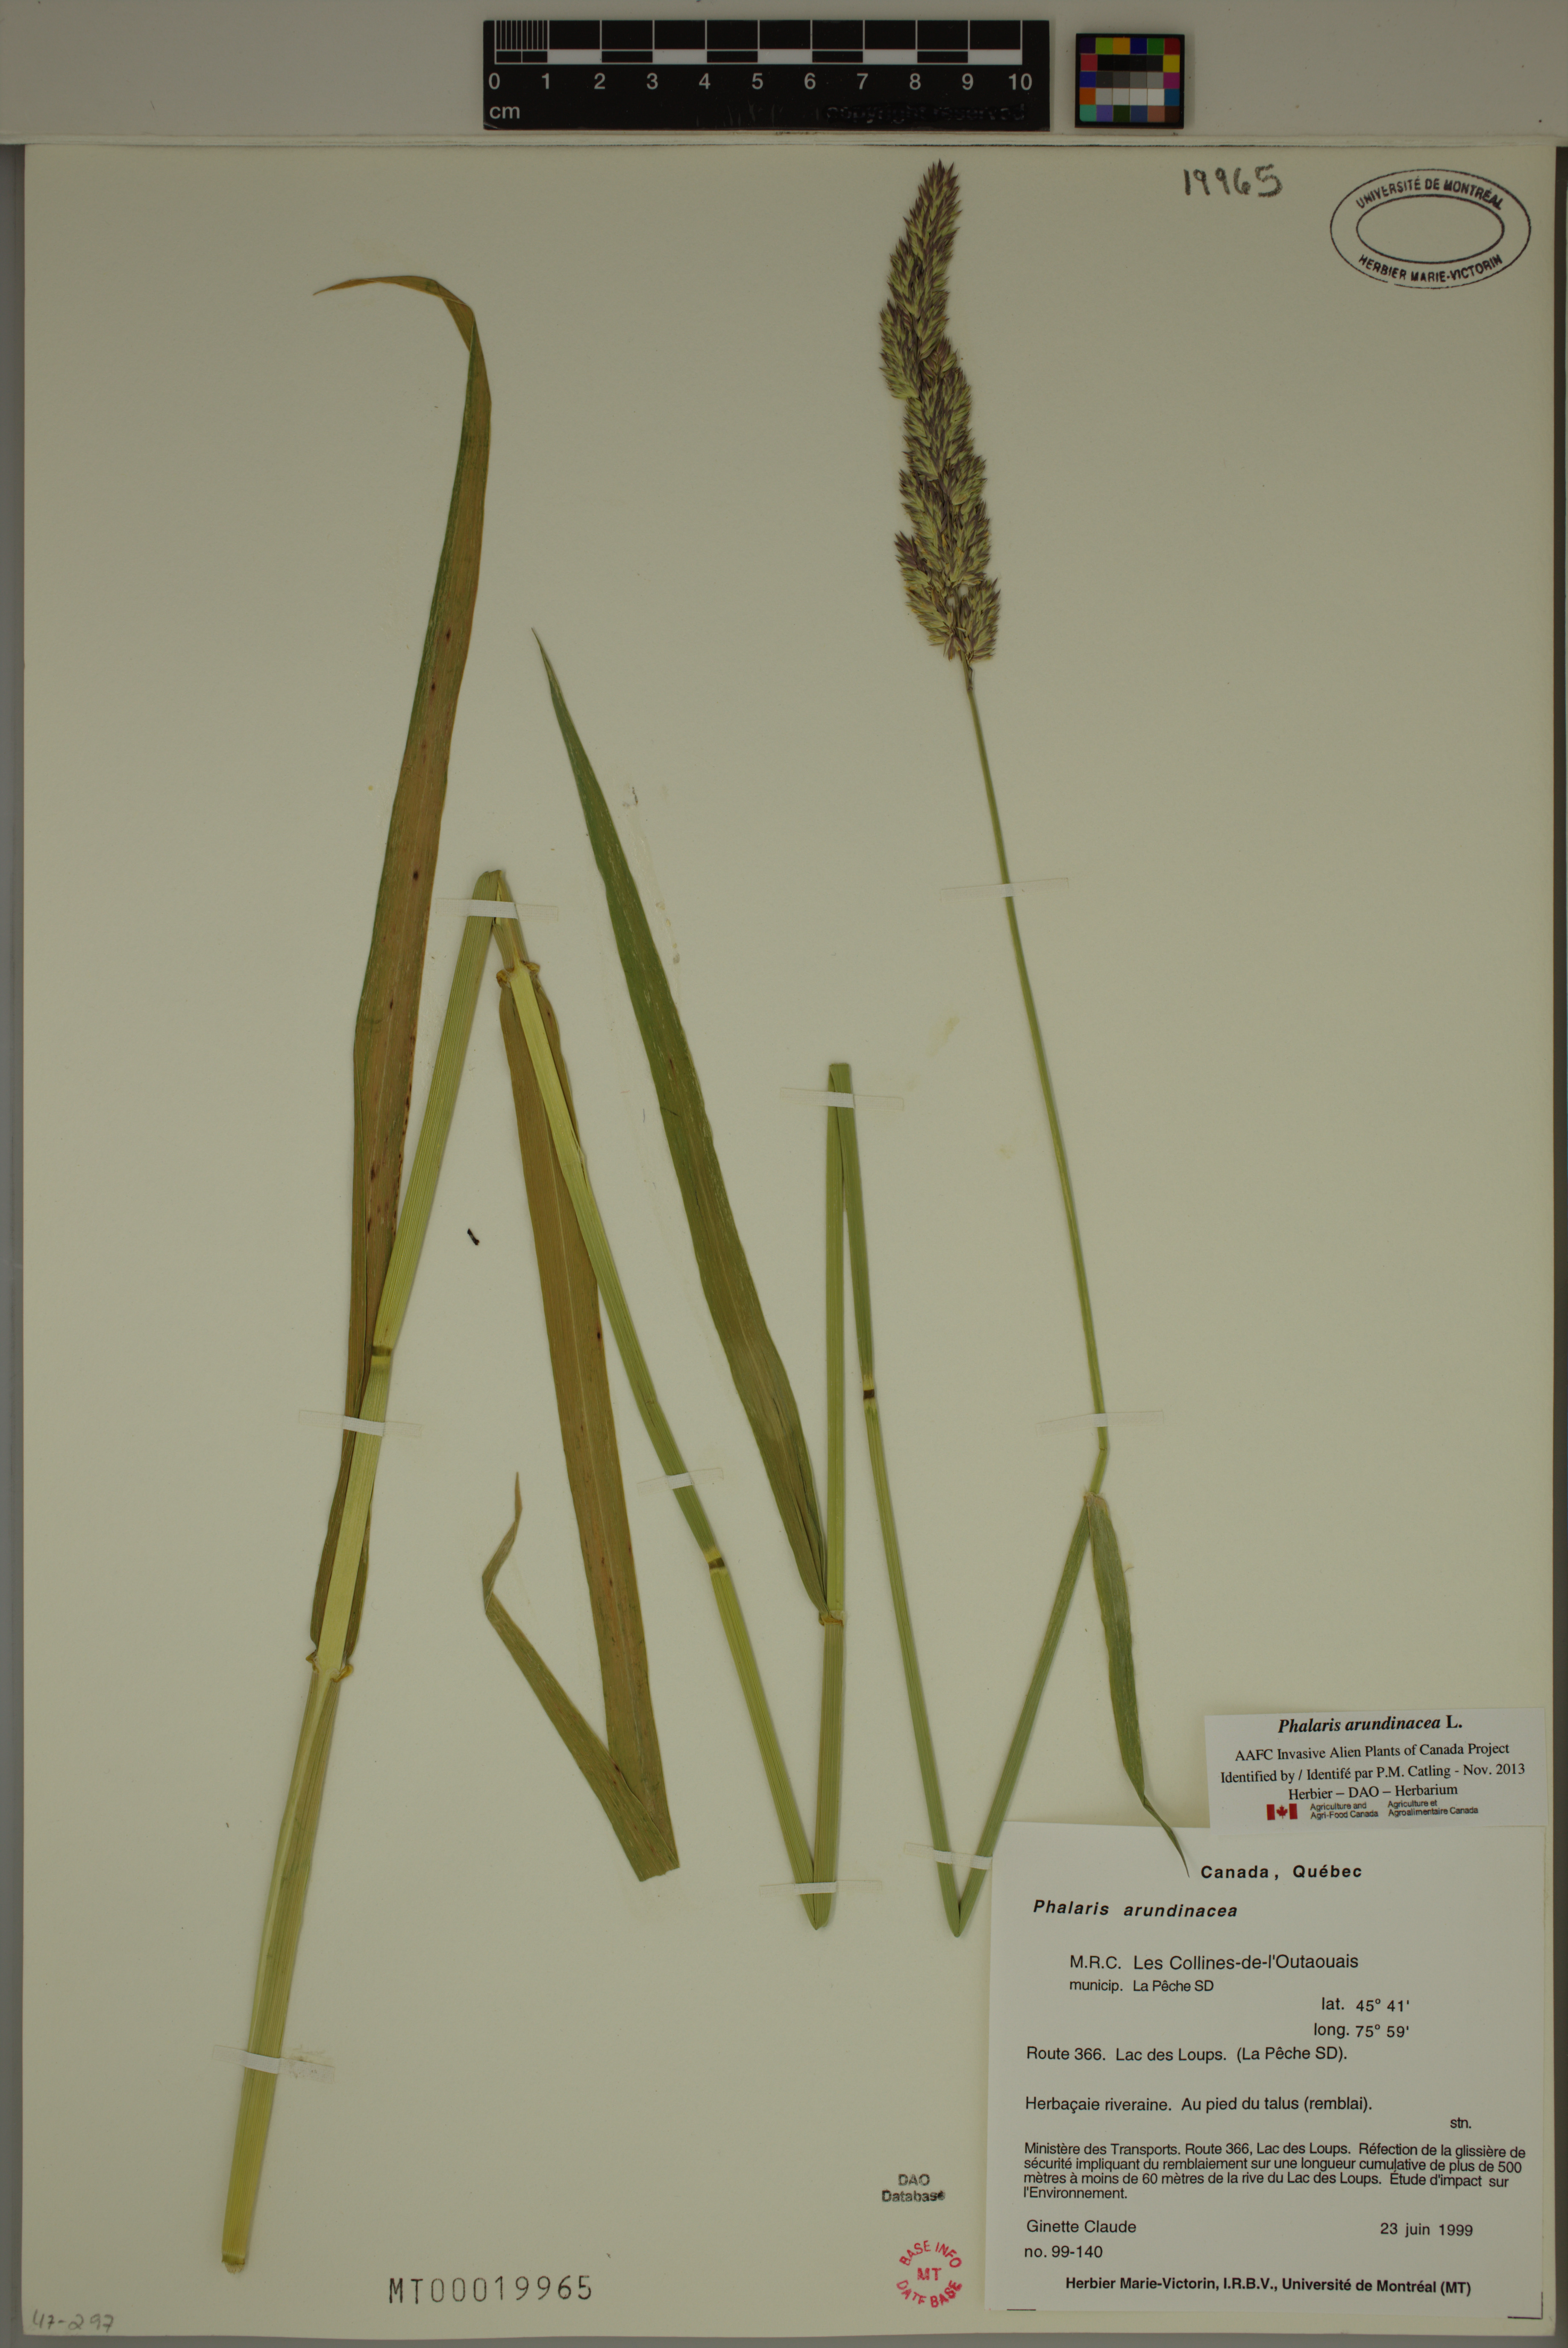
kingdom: Plantae
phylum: Tracheophyta
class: Liliopsida
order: Poales
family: Poaceae
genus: Phalaris
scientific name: Phalaris arundinacea
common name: Reed canary-grass
